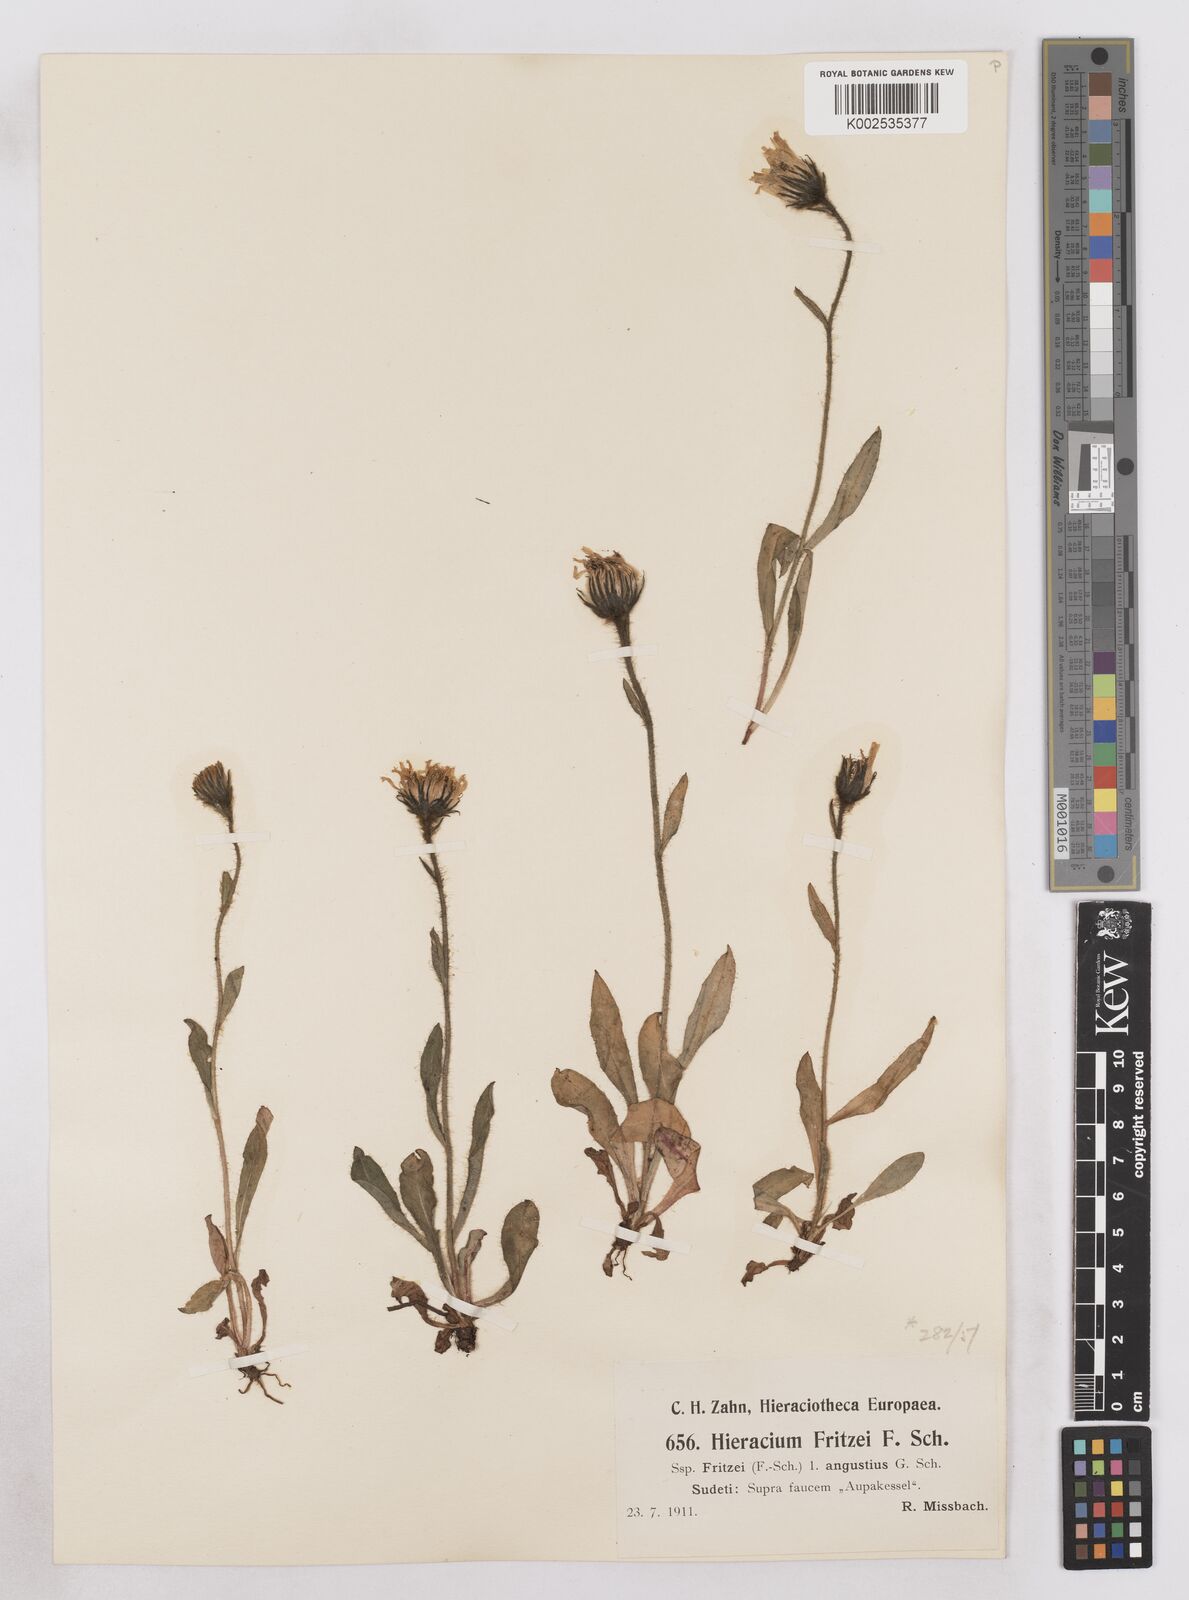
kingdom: Plantae
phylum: Tracheophyta
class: Magnoliopsida
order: Asterales
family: Asteraceae
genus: Hieracium
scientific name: Hieracium fritzei
